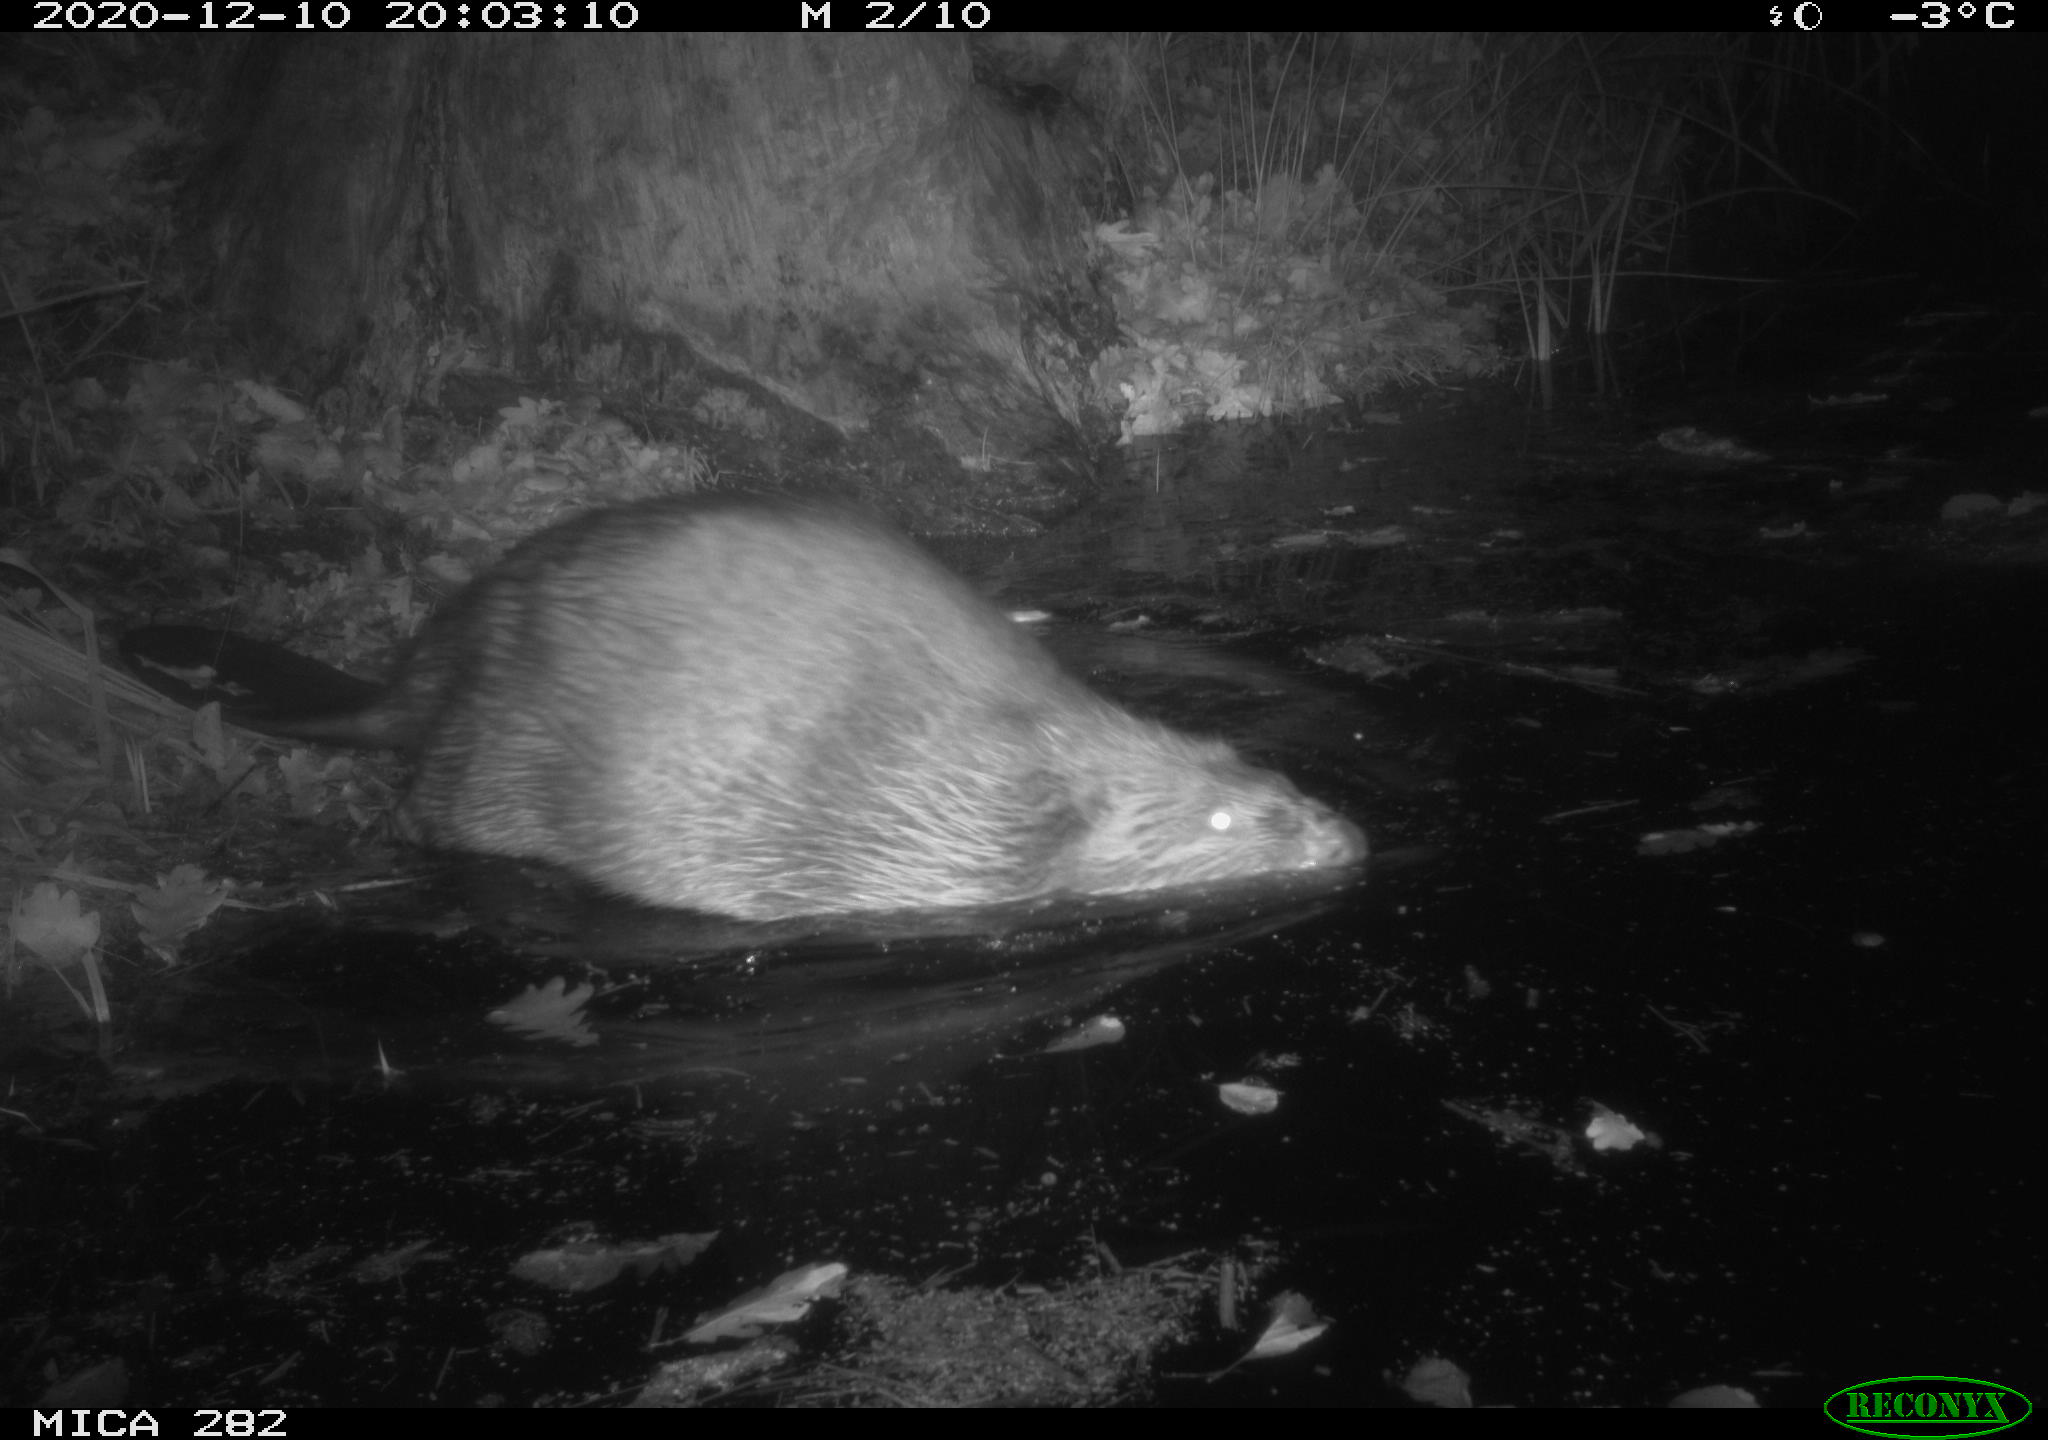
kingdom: Animalia
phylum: Chordata
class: Mammalia
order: Rodentia
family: Castoridae
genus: Castor
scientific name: Castor fiber
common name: Eurasian beaver
